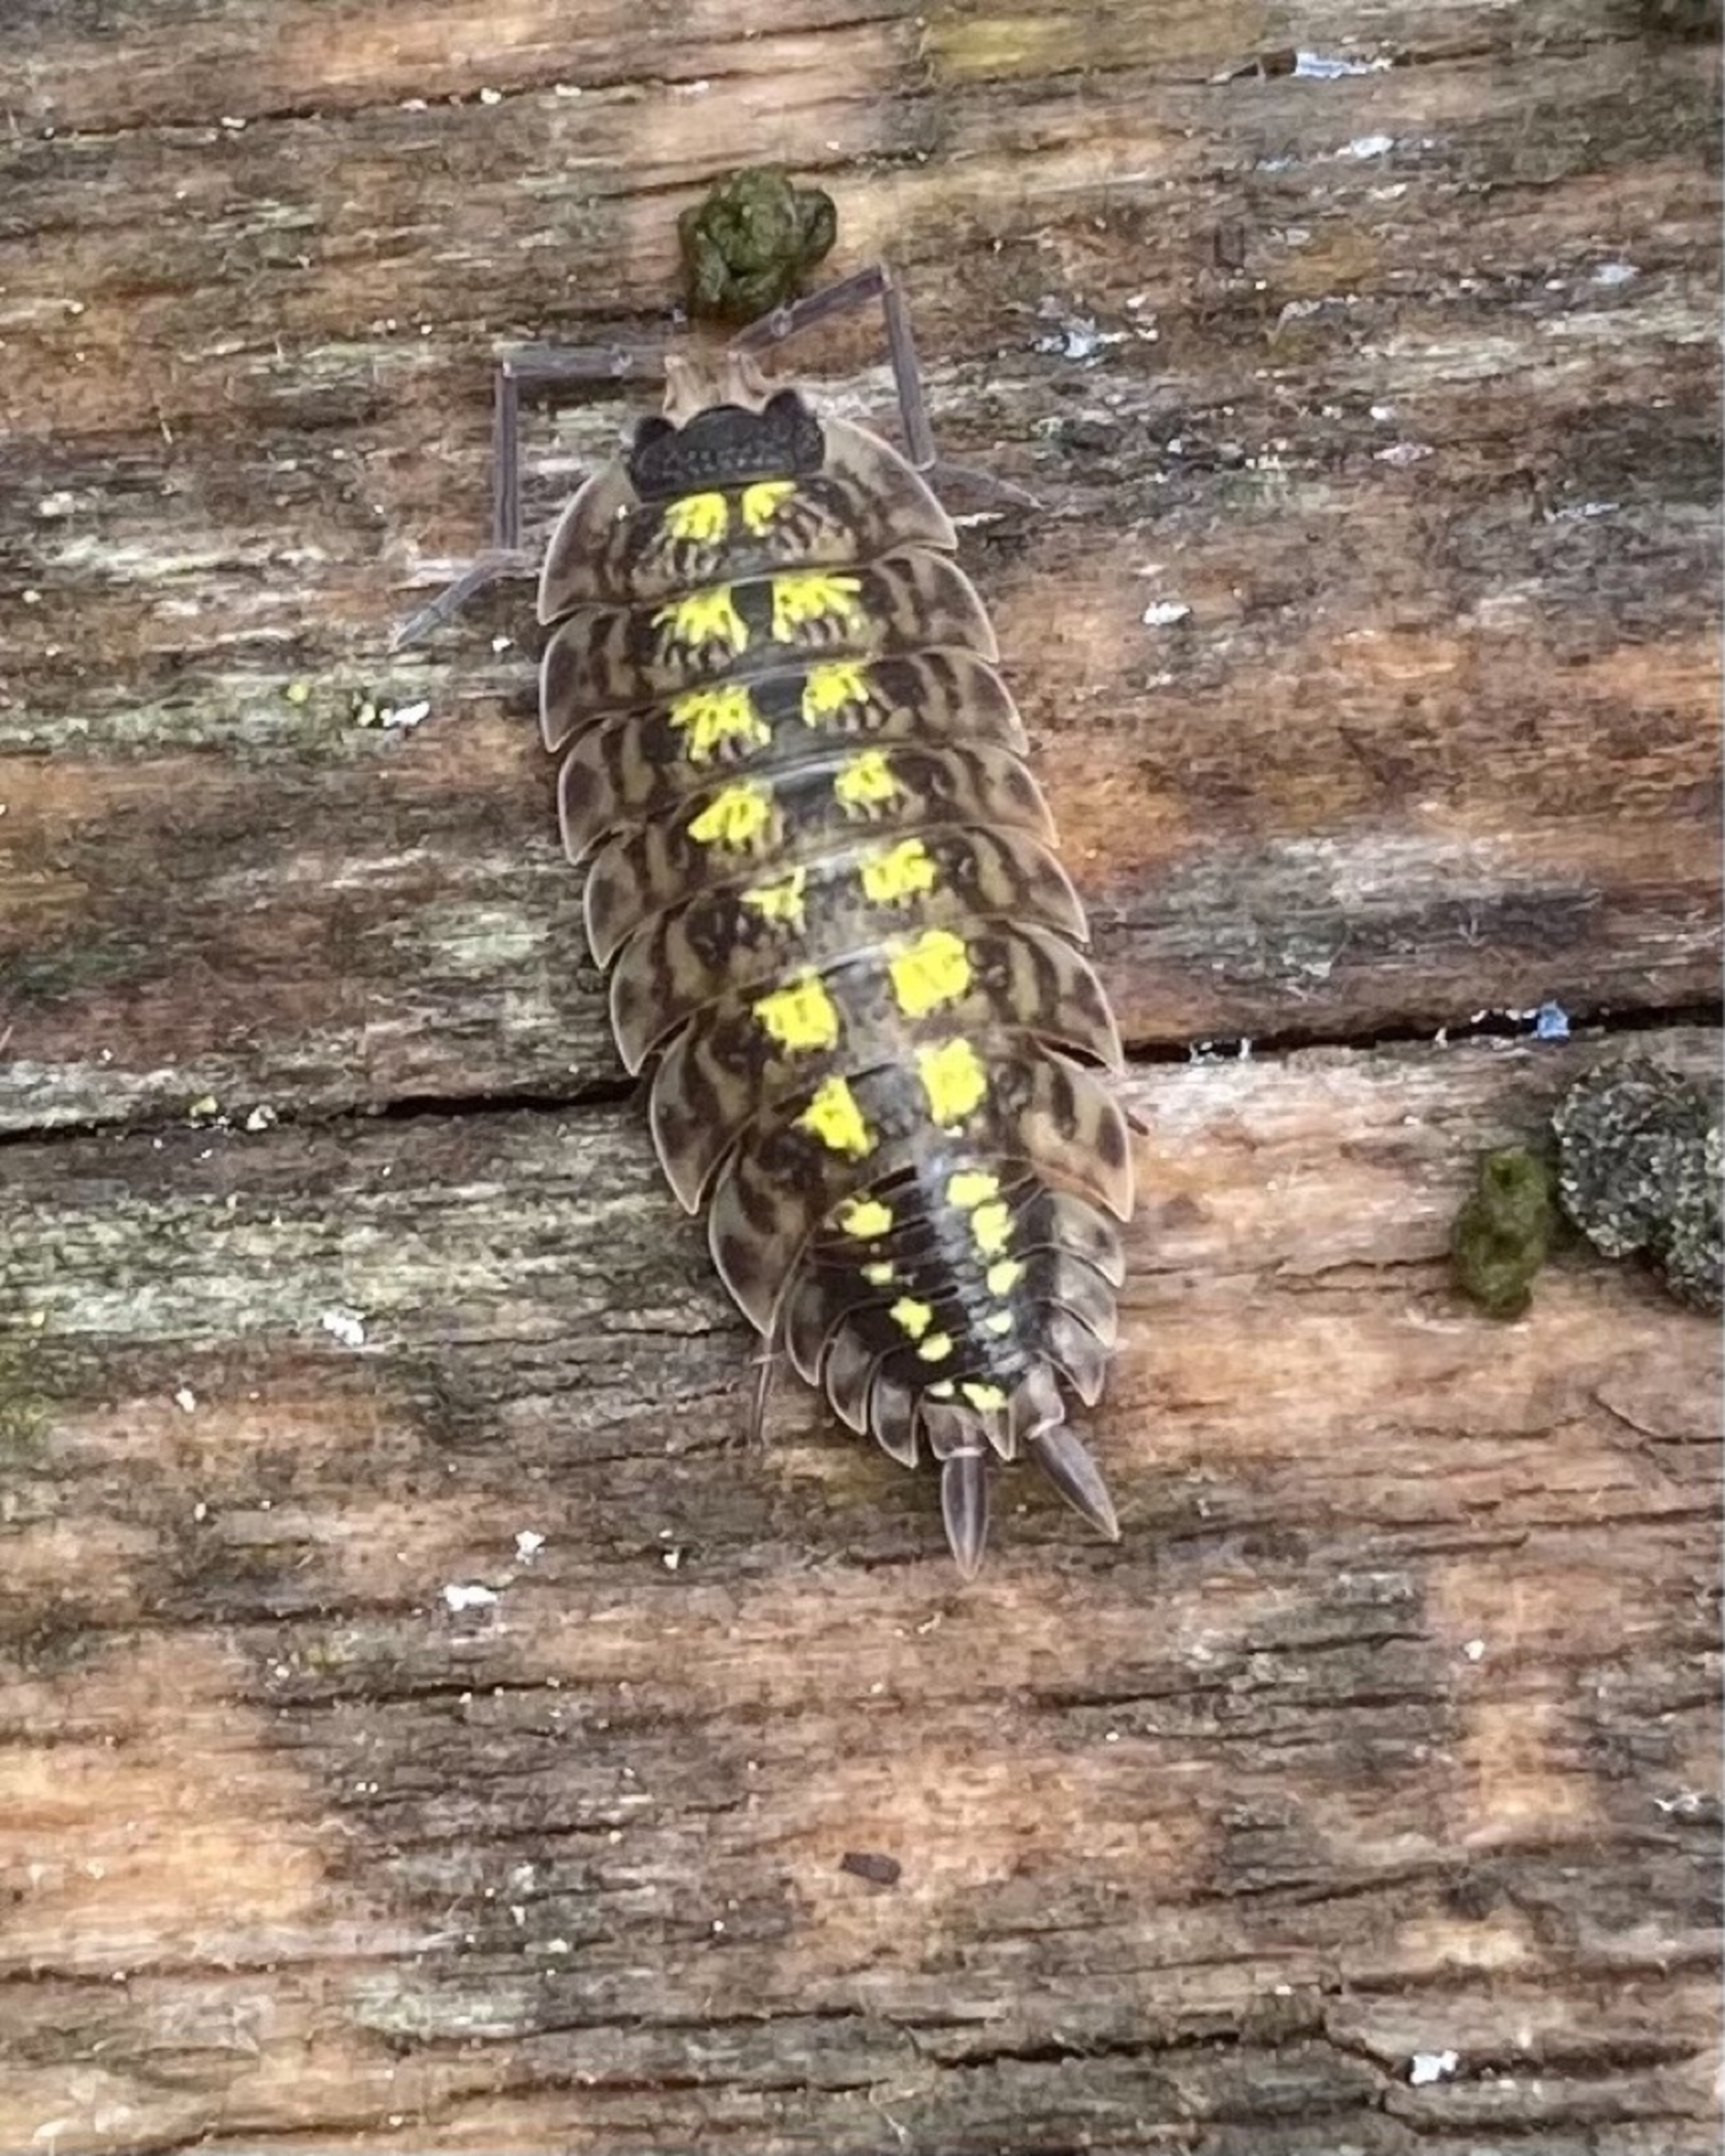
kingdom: Animalia
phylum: Arthropoda
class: Malacostraca
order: Isopoda
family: Porcellionidae
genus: Porcellio
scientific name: Porcellio spinicornis
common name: Sorthovedet bænkebider
